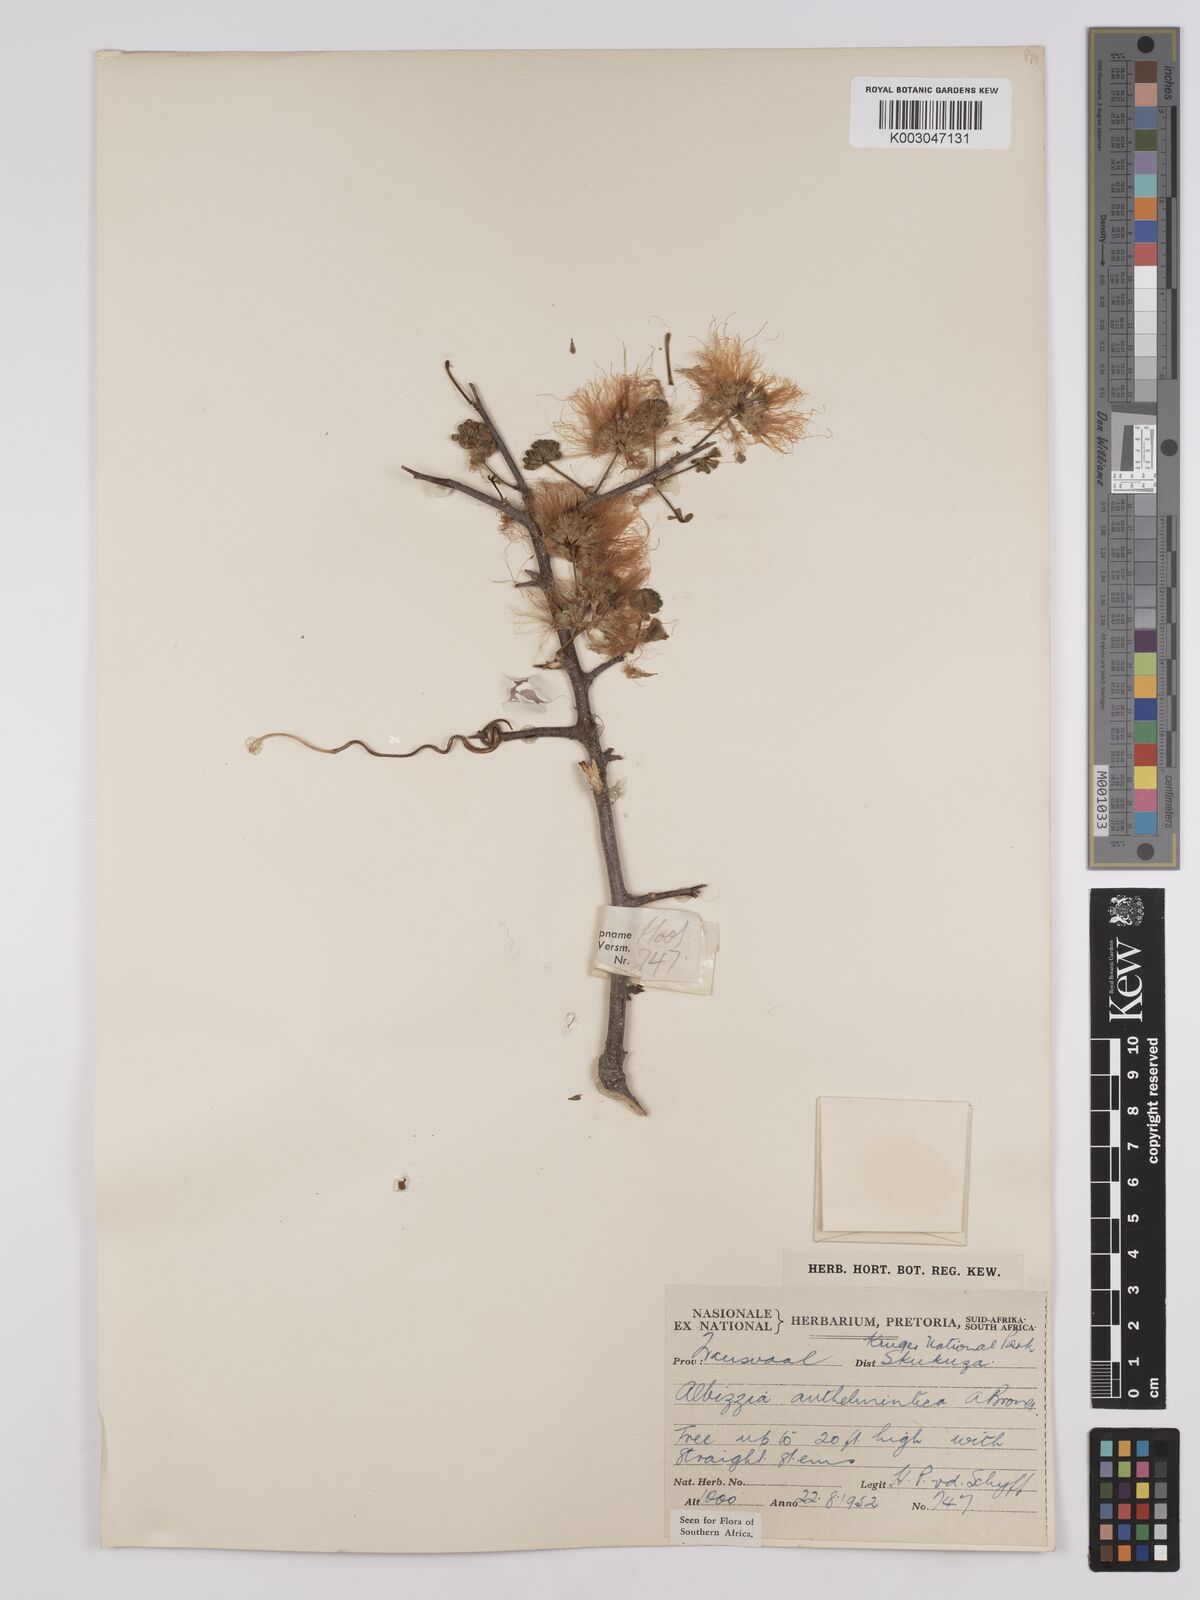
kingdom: Plantae
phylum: Tracheophyta
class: Magnoliopsida
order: Fabales
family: Fabaceae
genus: Albizia
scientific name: Albizia anthelmintica
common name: Worm-bark false-thorn
